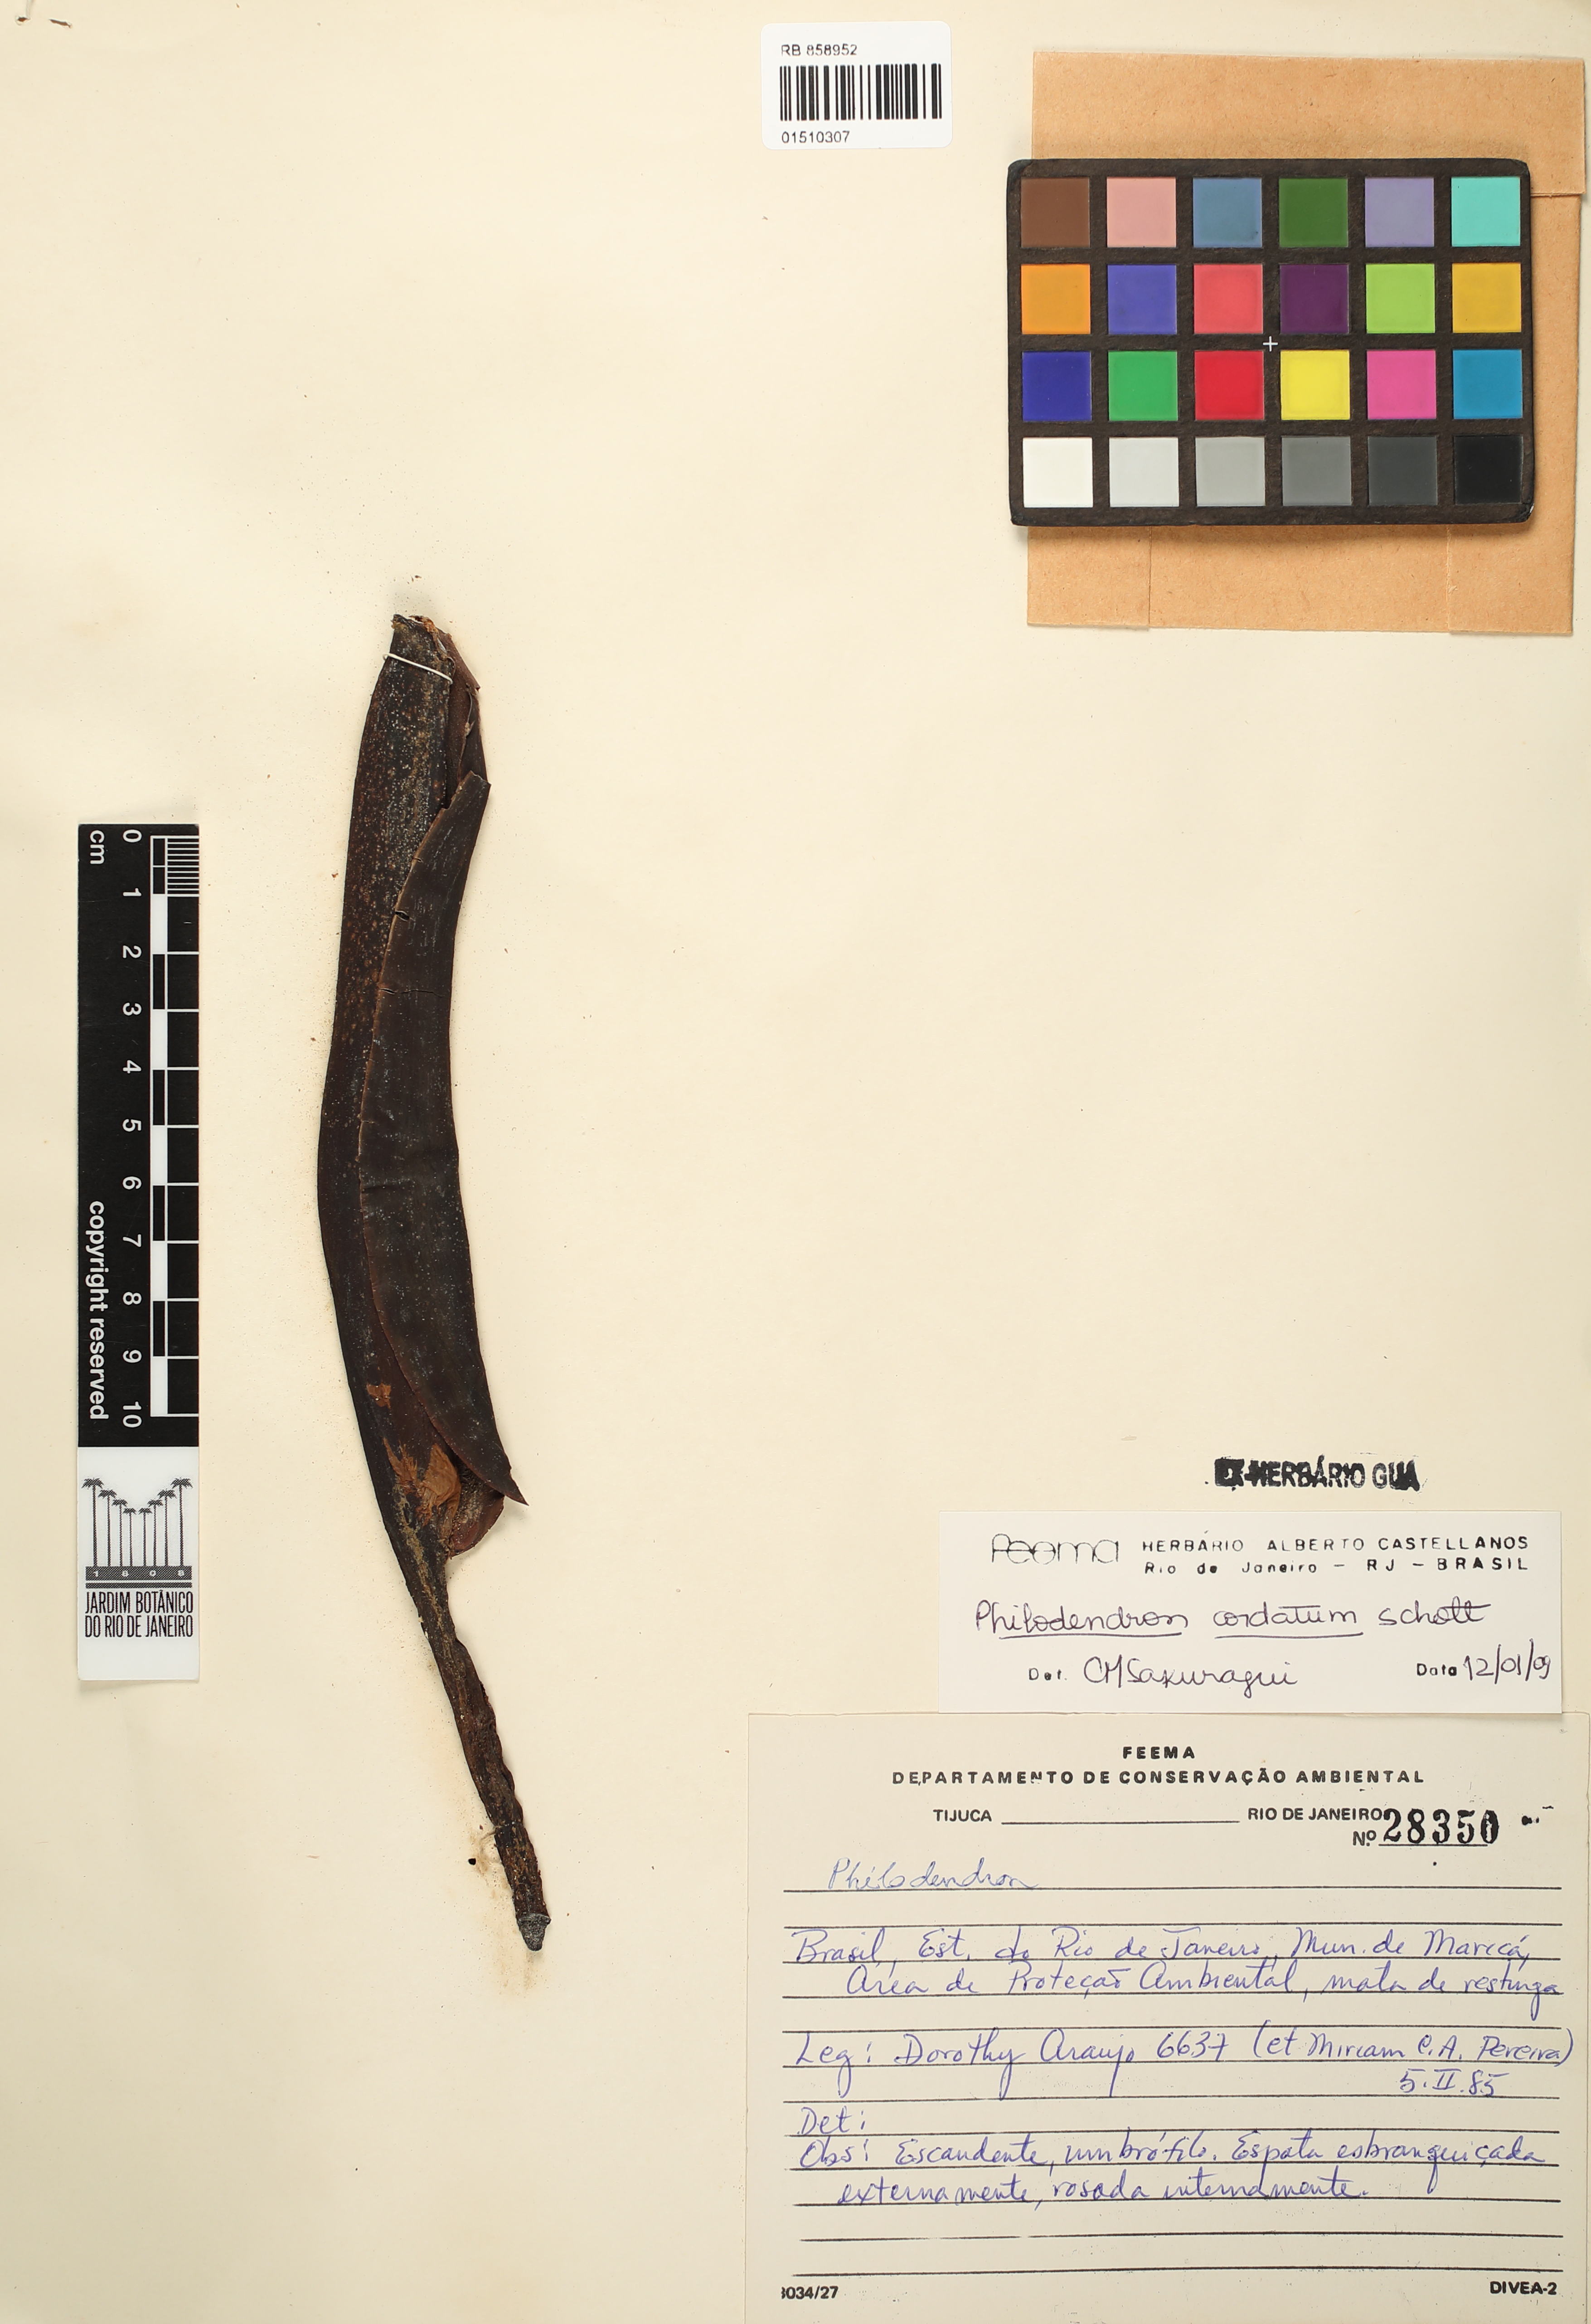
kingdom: Plantae
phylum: Tracheophyta
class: Liliopsida
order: Alismatales
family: Araceae
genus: Philodendron
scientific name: Philodendron cordatum
